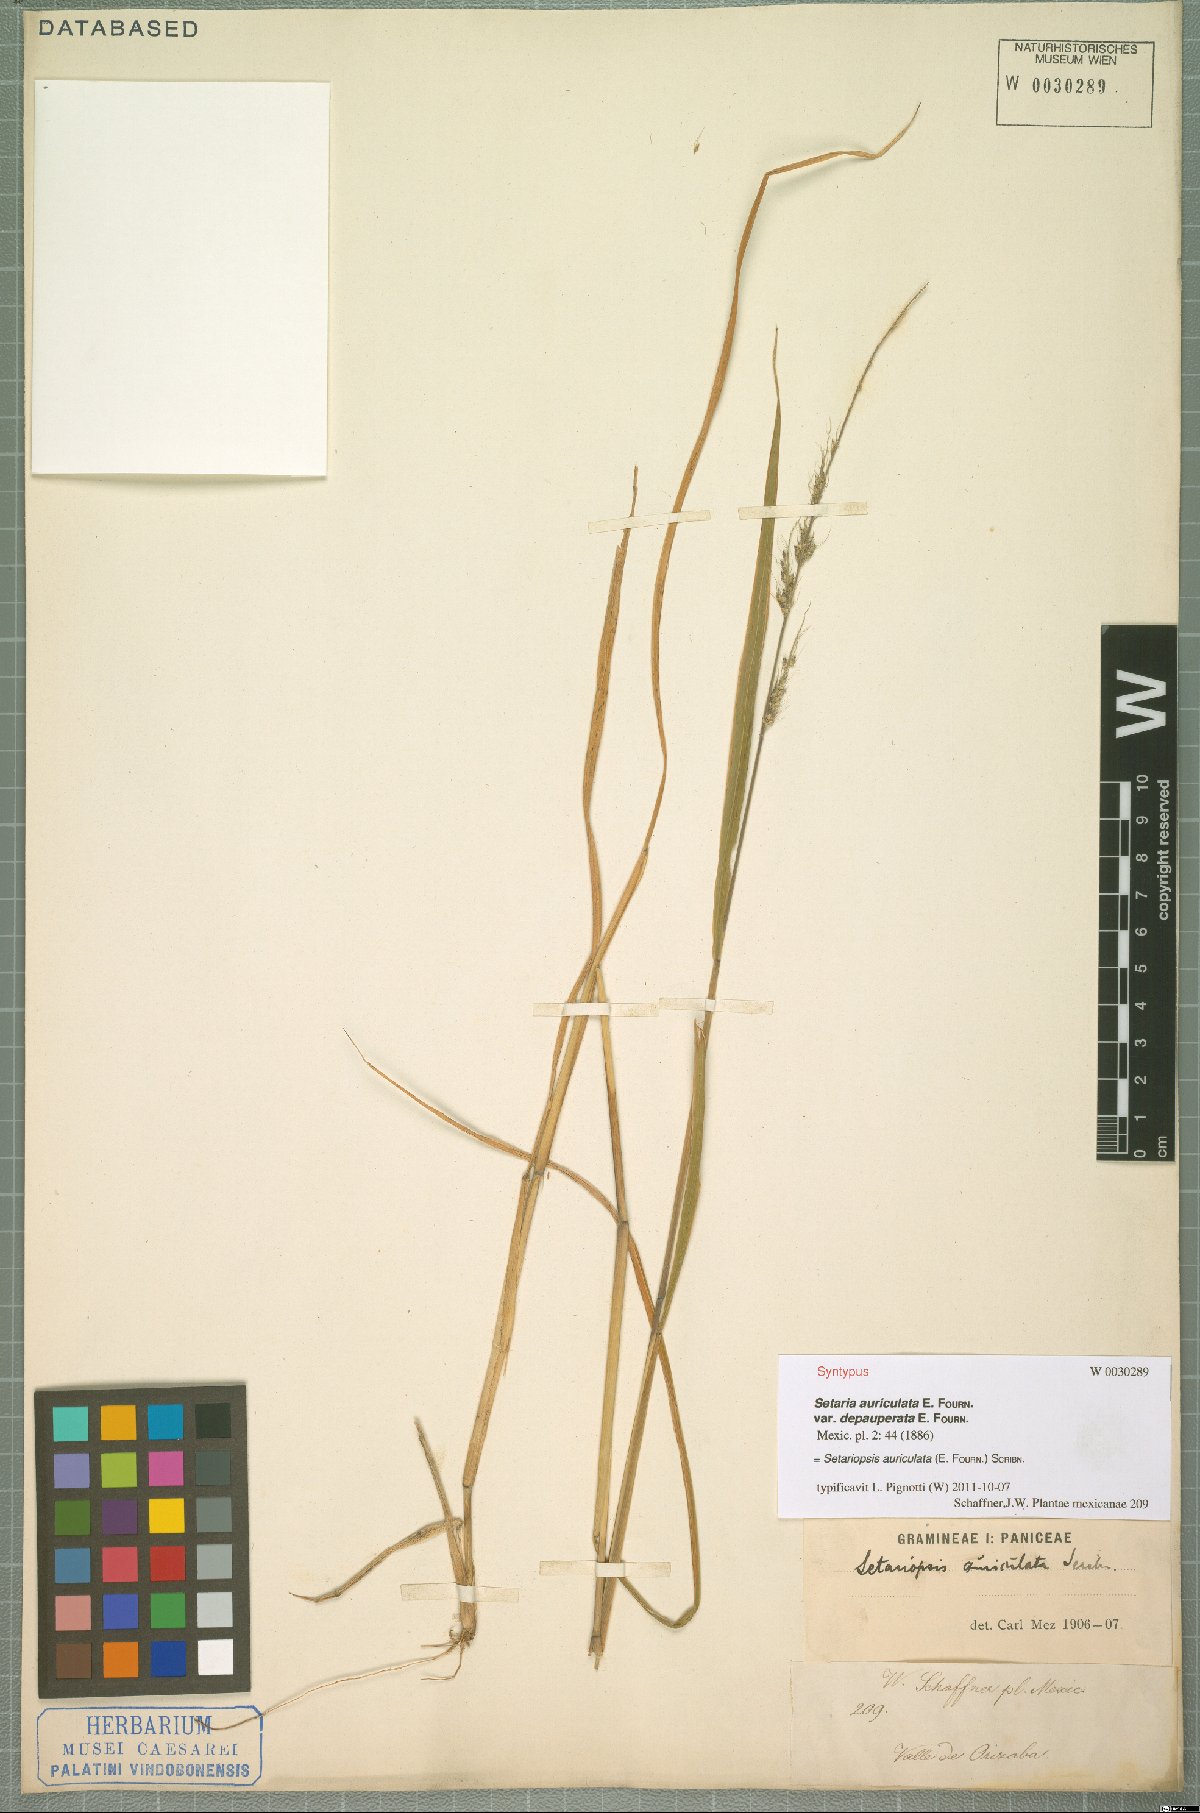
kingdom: Plantae
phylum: Tracheophyta
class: Liliopsida
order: Poales
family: Poaceae
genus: Setariopsis
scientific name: Setariopsis auriculata
